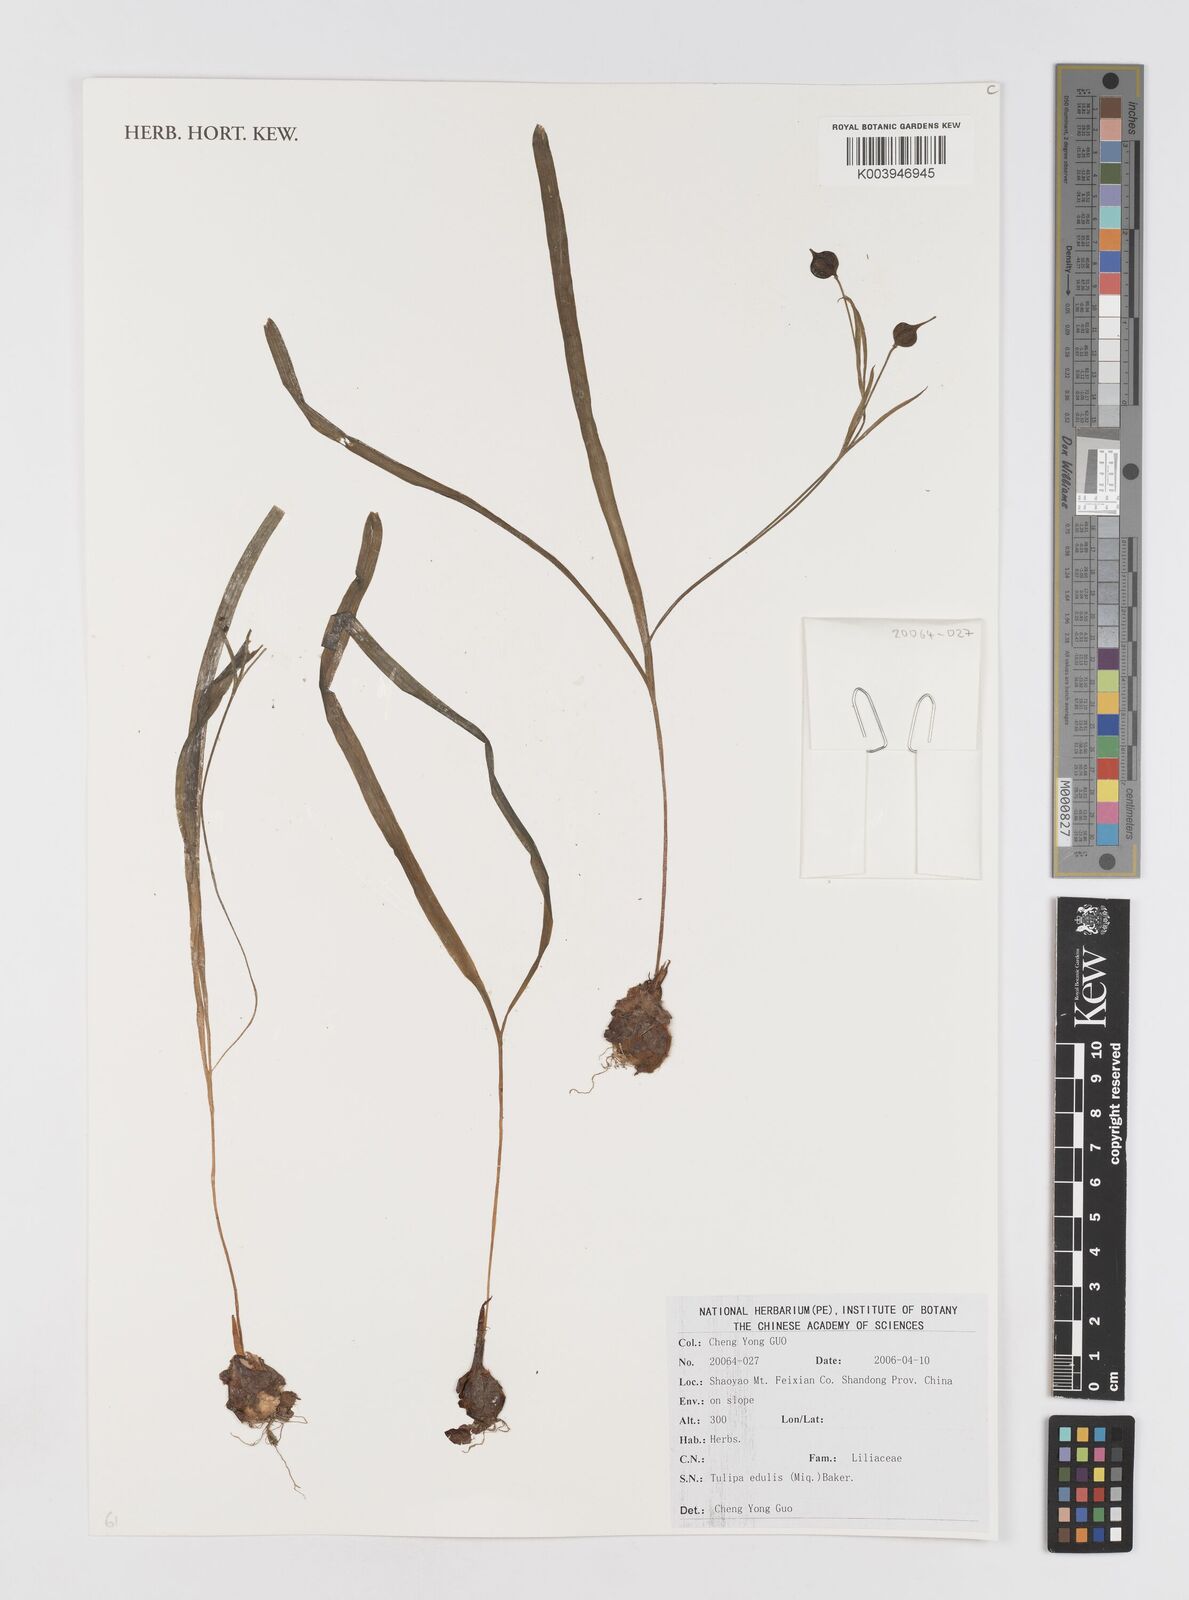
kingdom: Plantae
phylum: Tracheophyta
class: Liliopsida
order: Liliales
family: Liliaceae
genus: Amana
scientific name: Amana edulis
